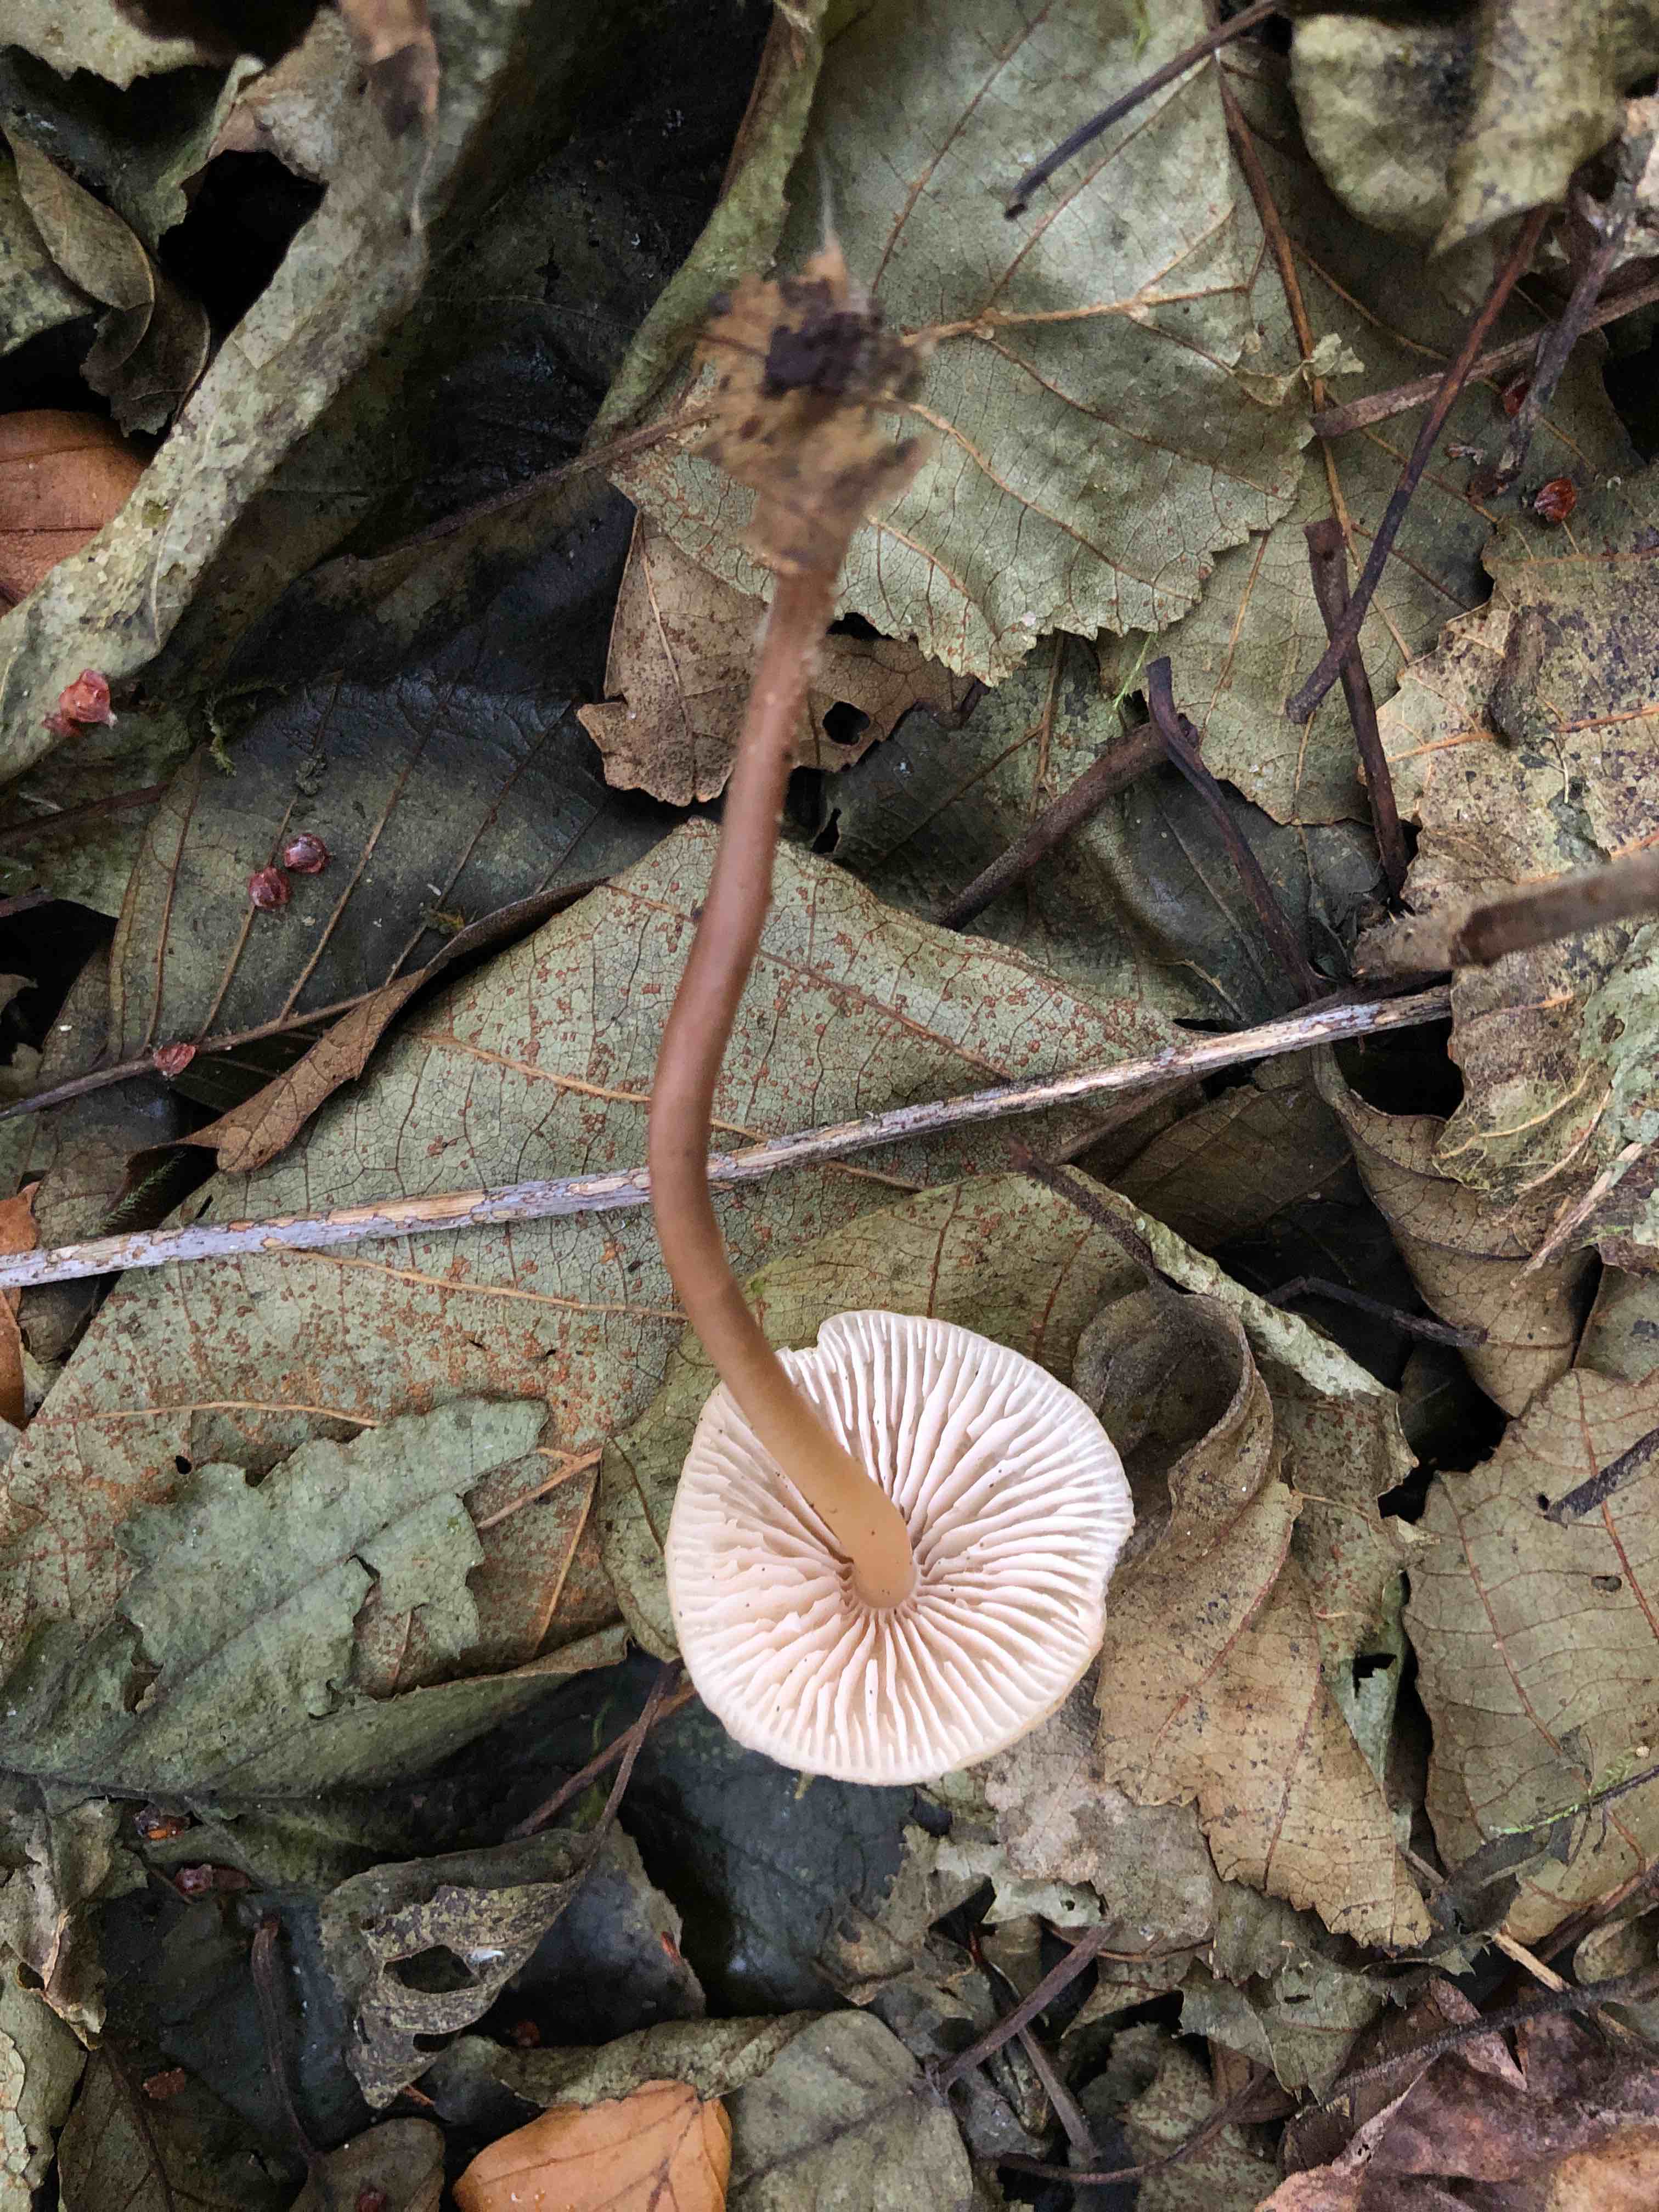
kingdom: Fungi
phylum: Basidiomycota
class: Agaricomycetes
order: Agaricales
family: Mycenaceae
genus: Mycena
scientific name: Mycena galericulata
